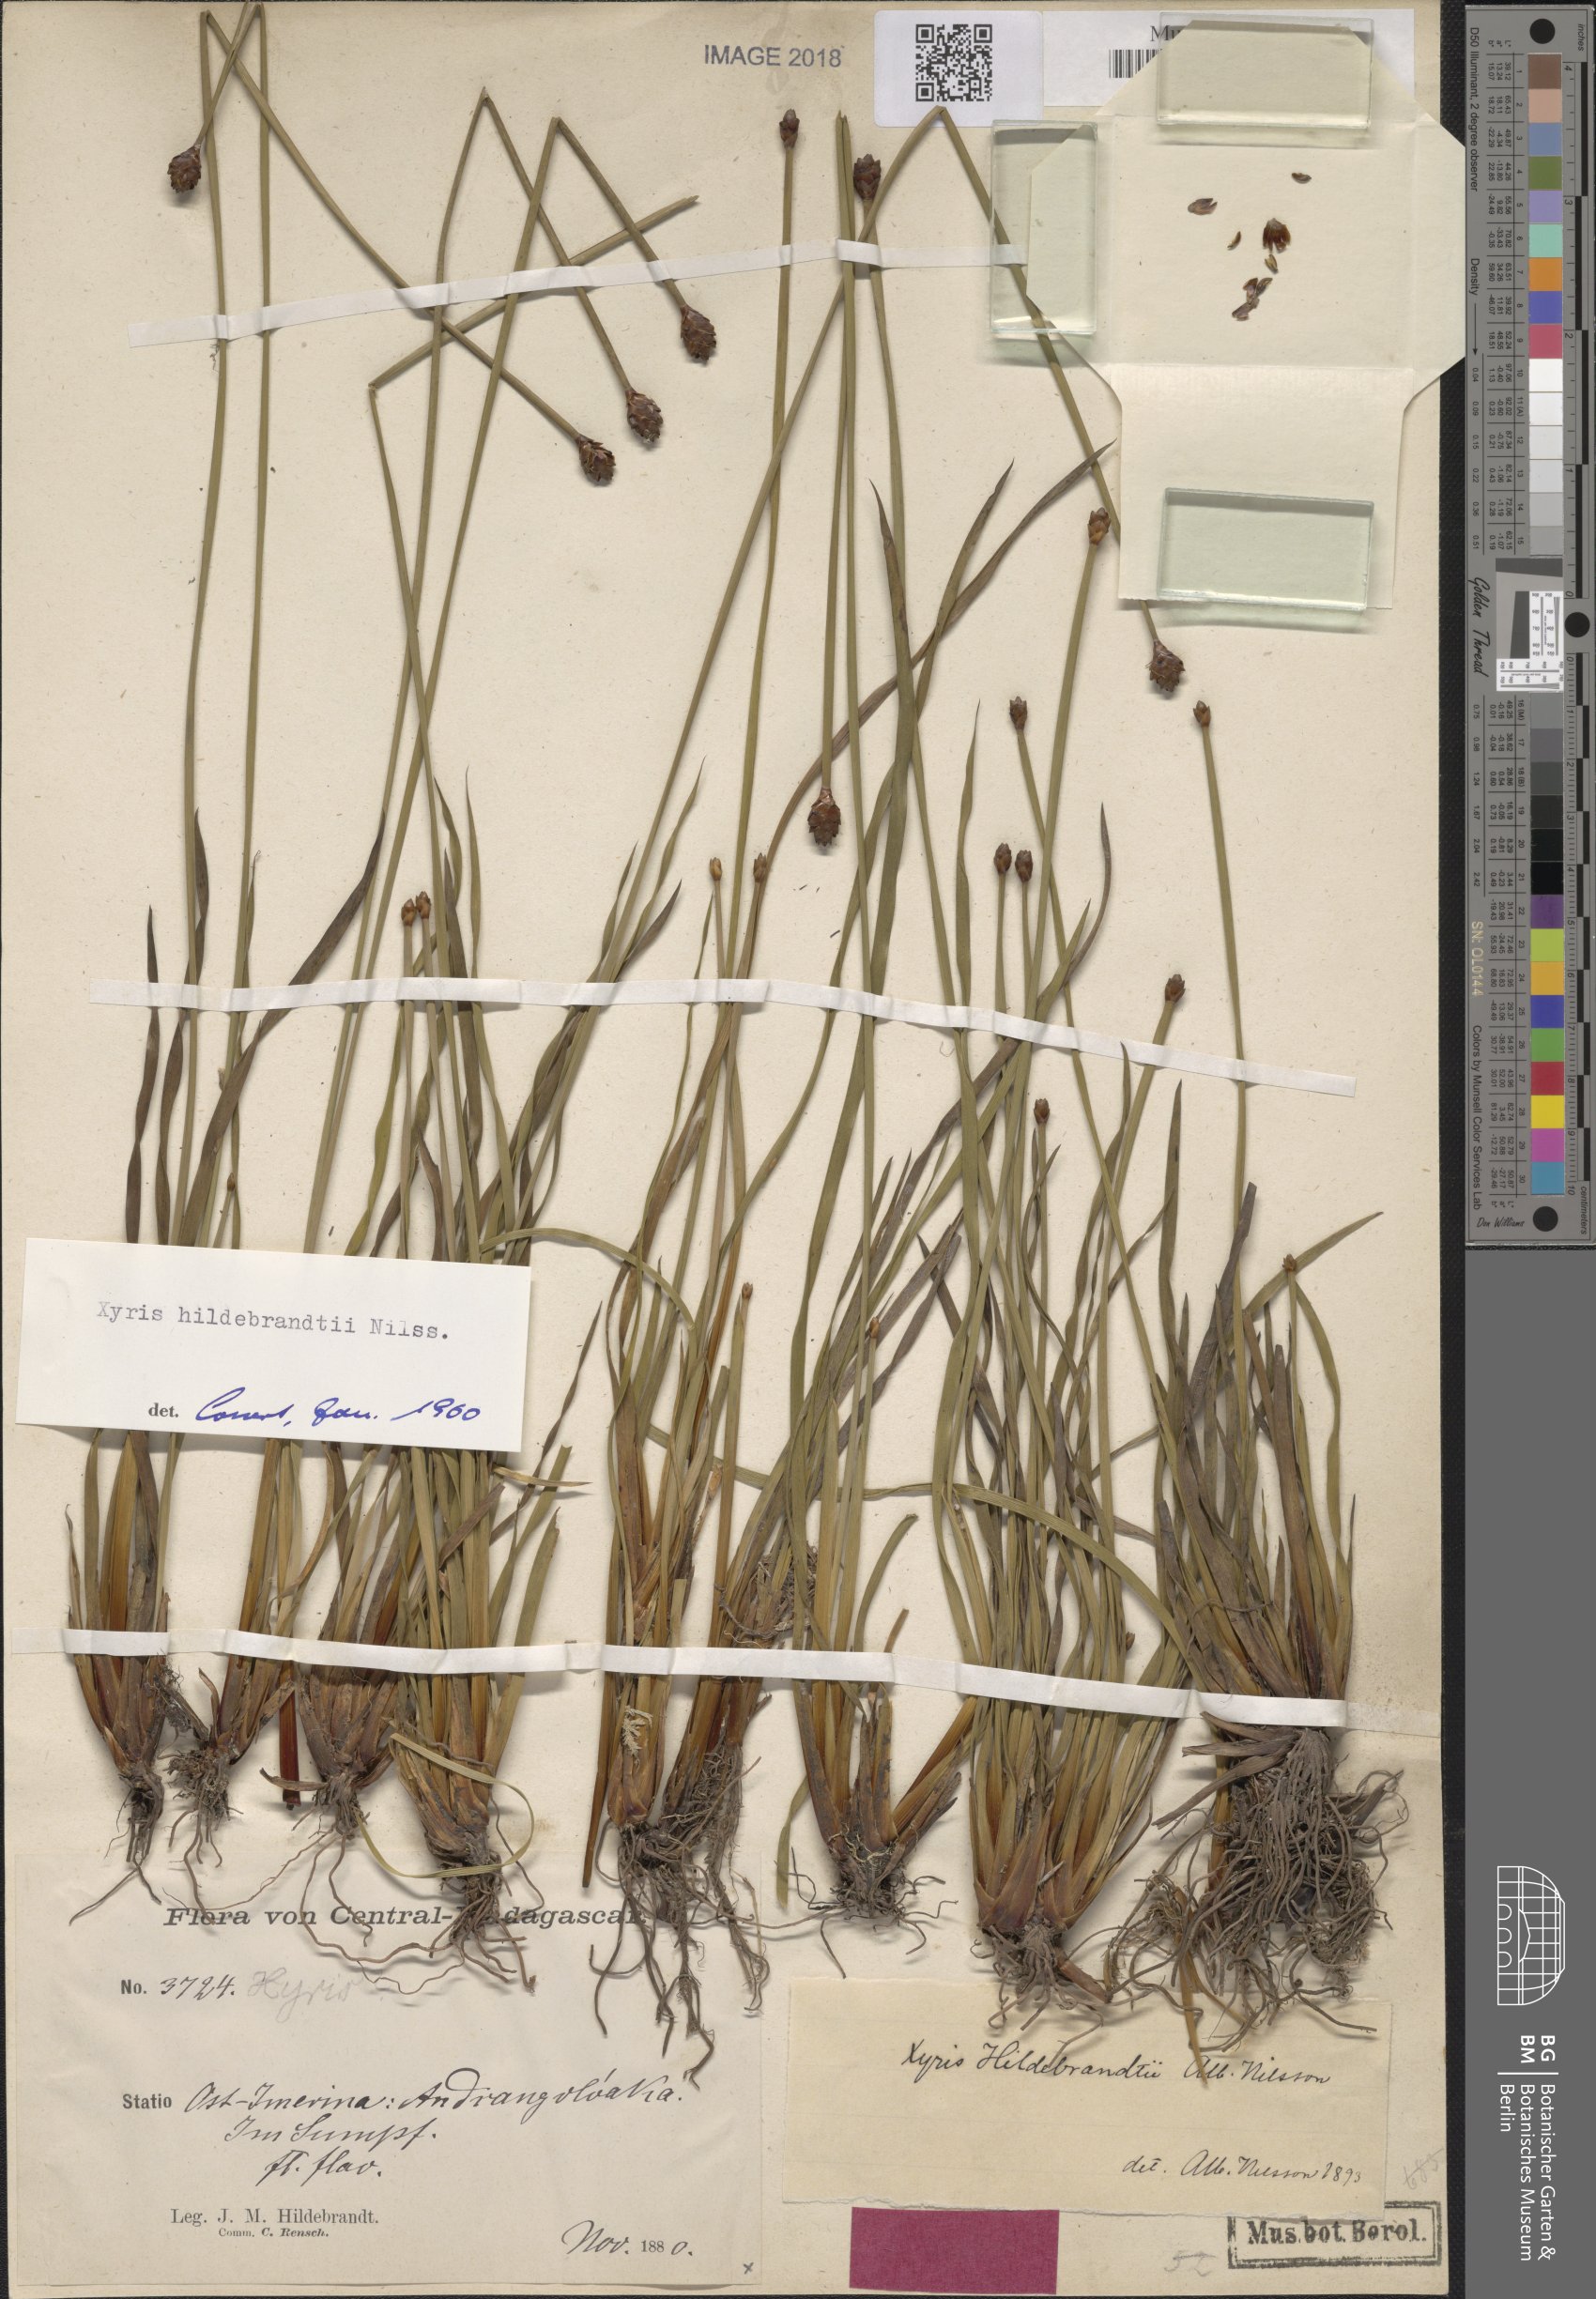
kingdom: Plantae
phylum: Tracheophyta
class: Liliopsida
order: Poales
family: Xyridaceae
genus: Xyris
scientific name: Xyris congensis
